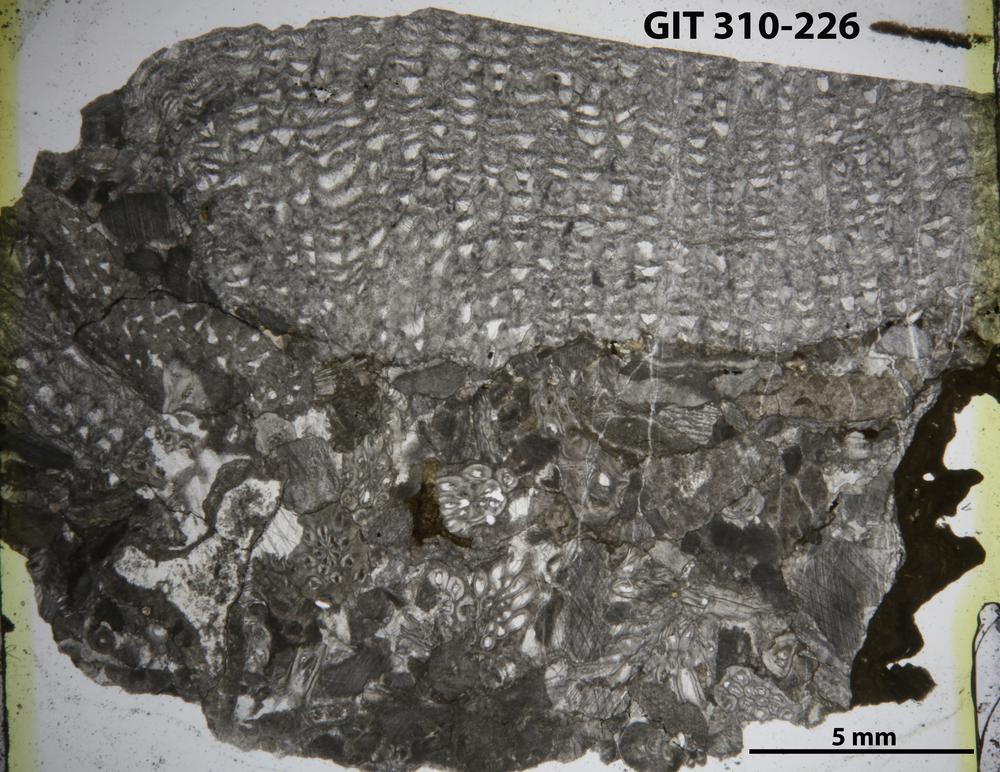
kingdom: Animalia
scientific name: Animalia
